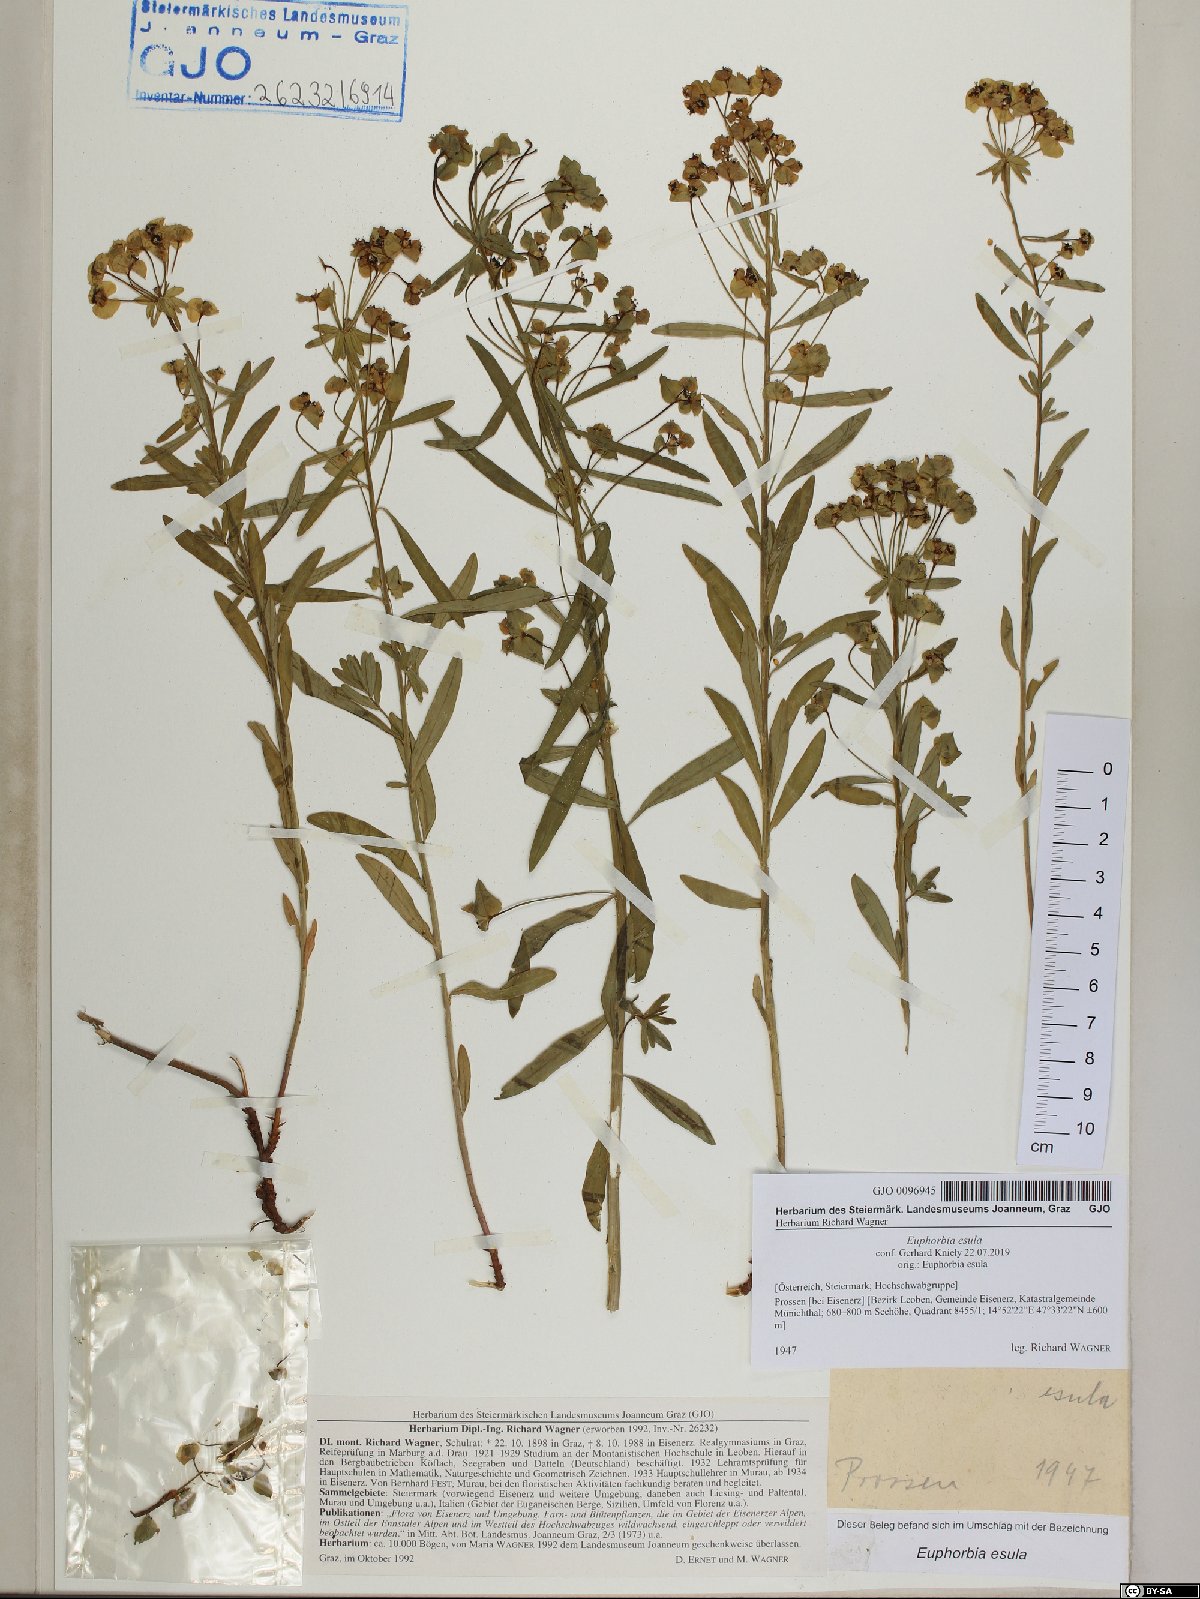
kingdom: Plantae
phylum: Tracheophyta
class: Magnoliopsida
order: Malpighiales
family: Euphorbiaceae
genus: Euphorbia
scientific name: Euphorbia esula
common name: Leafy spurge
